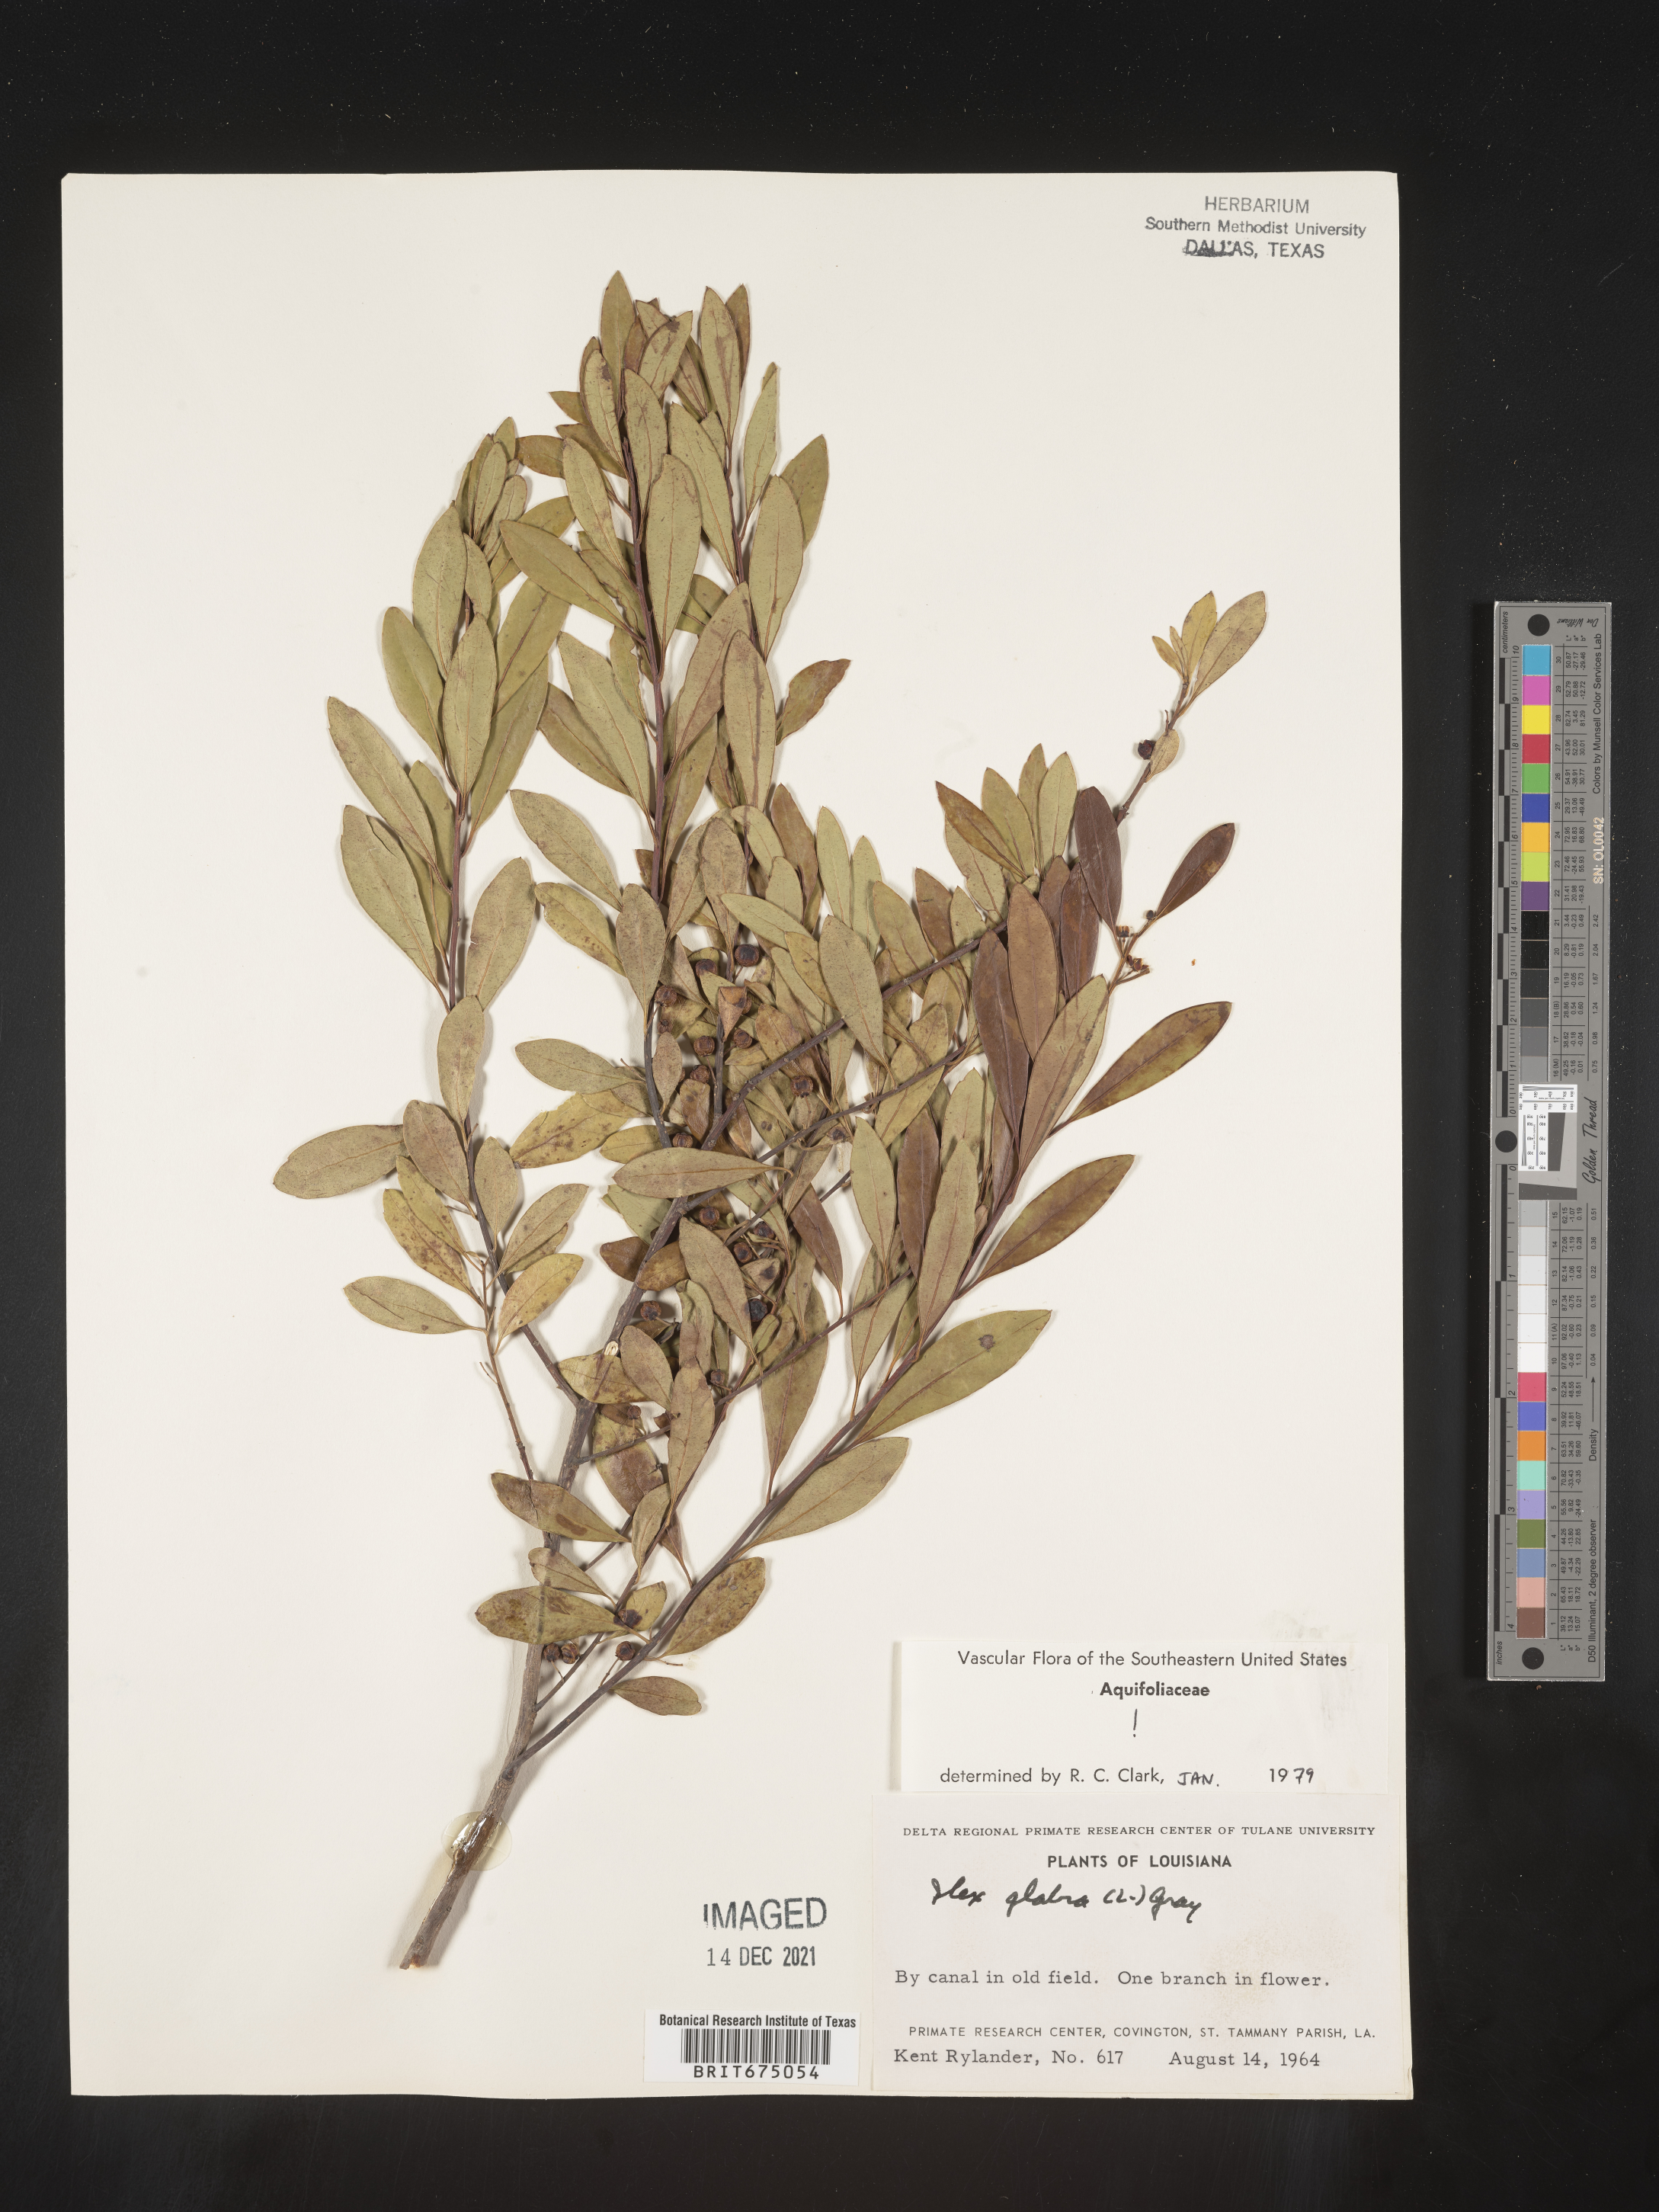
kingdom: Plantae
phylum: Tracheophyta
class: Magnoliopsida
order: Aquifoliales
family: Aquifoliaceae
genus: Ilex
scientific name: Ilex glabra
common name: Bitter gallberry
